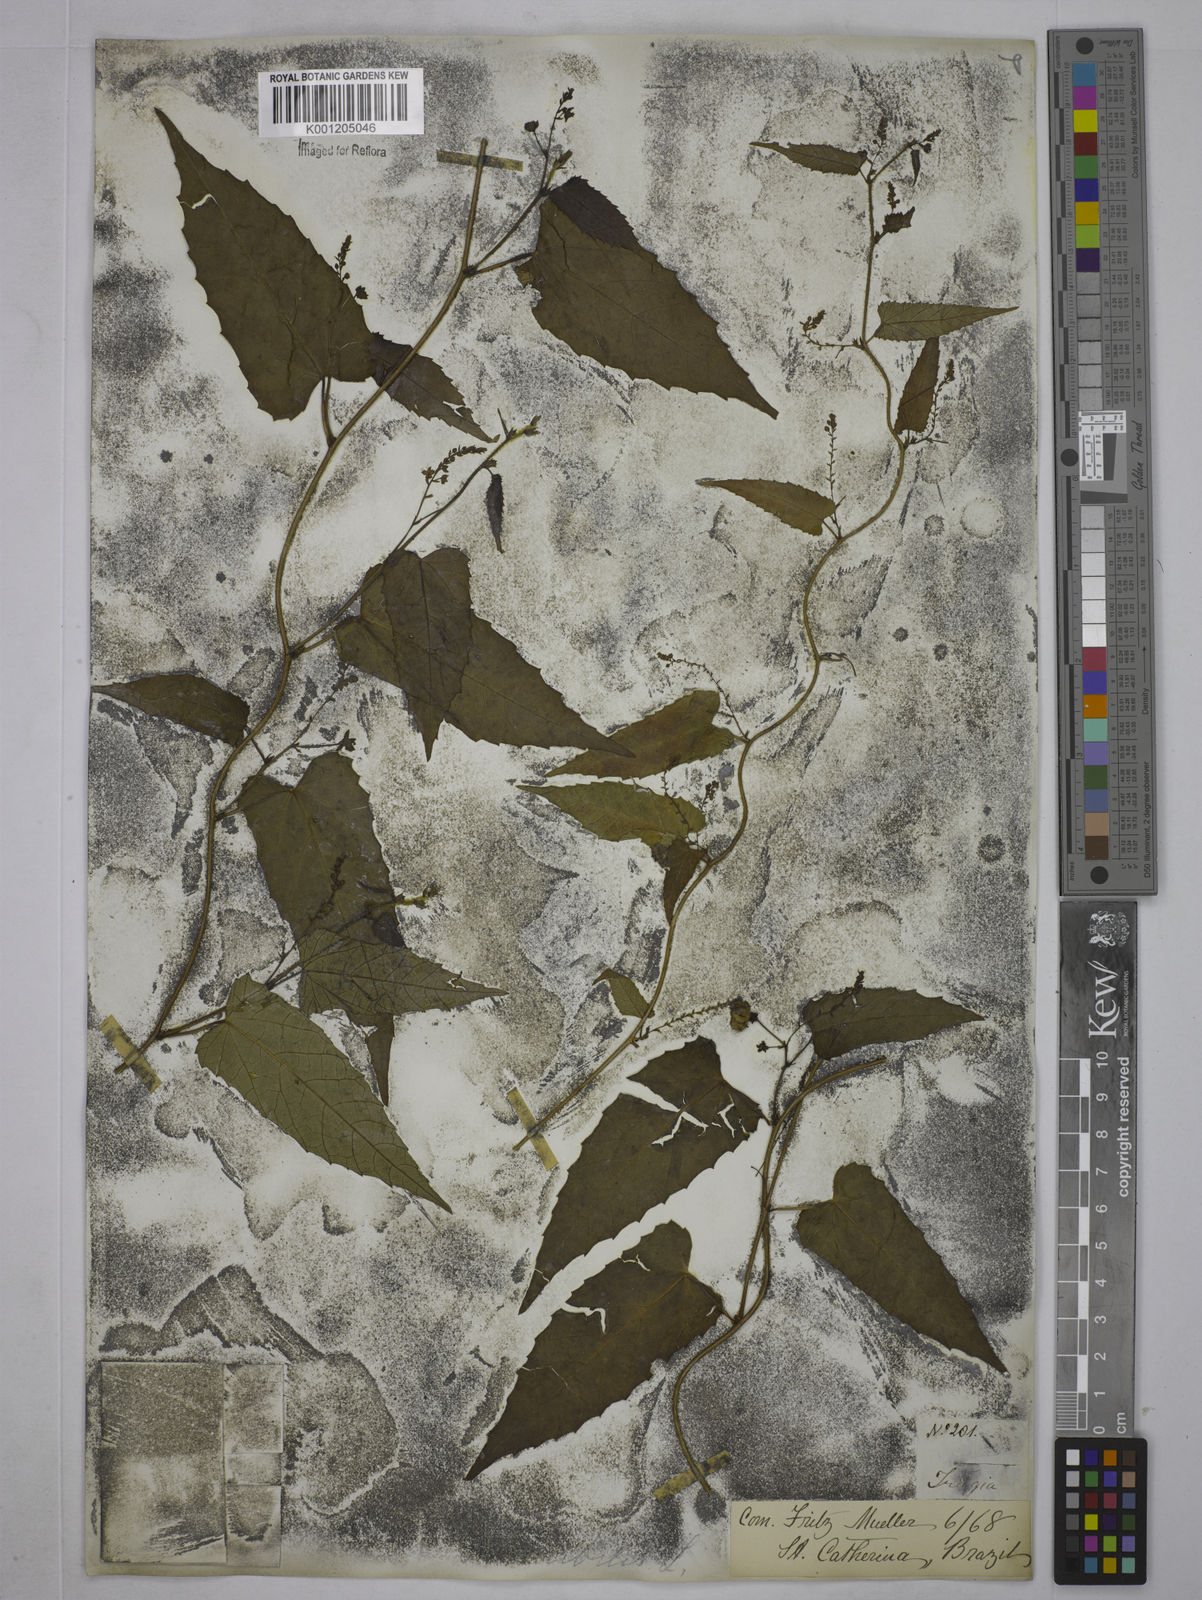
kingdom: Plantae
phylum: Tracheophyta
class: Magnoliopsida
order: Malpighiales
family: Euphorbiaceae
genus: Tragia
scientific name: Tragia volubilis
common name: Twining cow-itch
